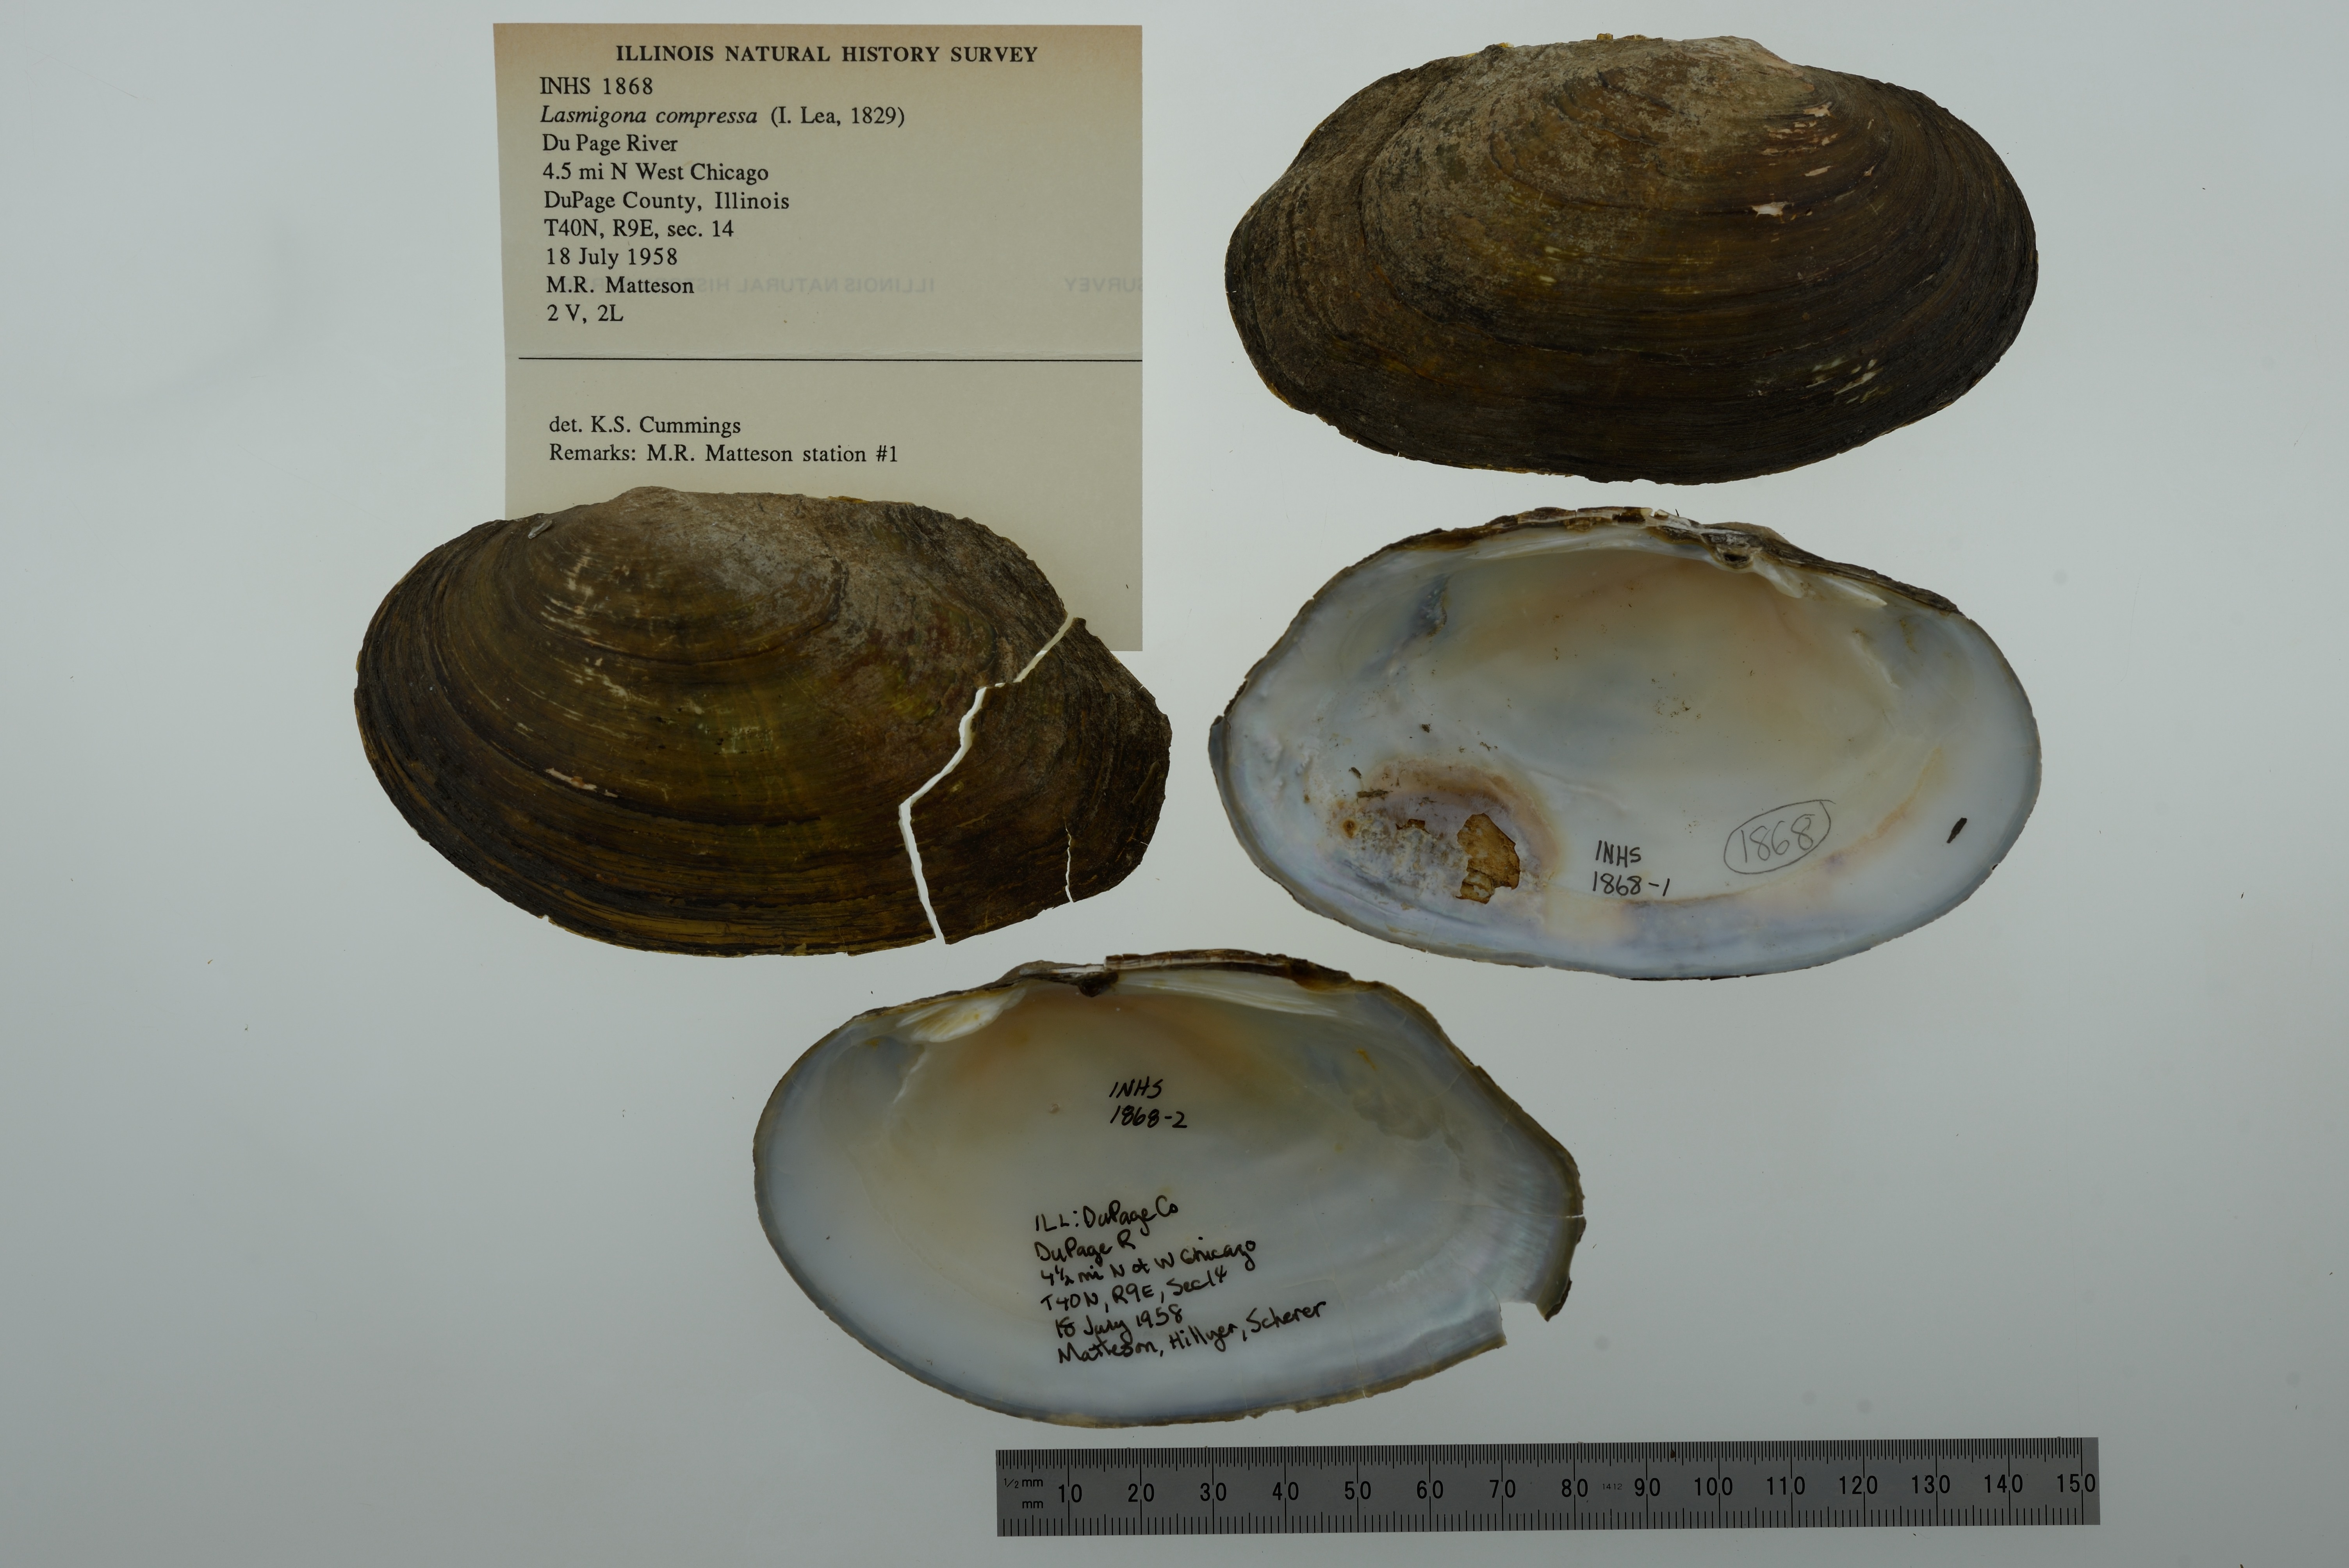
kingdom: Animalia
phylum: Mollusca
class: Bivalvia
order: Unionida
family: Unionidae
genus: Lasmigona
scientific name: Lasmigona compressa
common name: Creek heelsplitter
